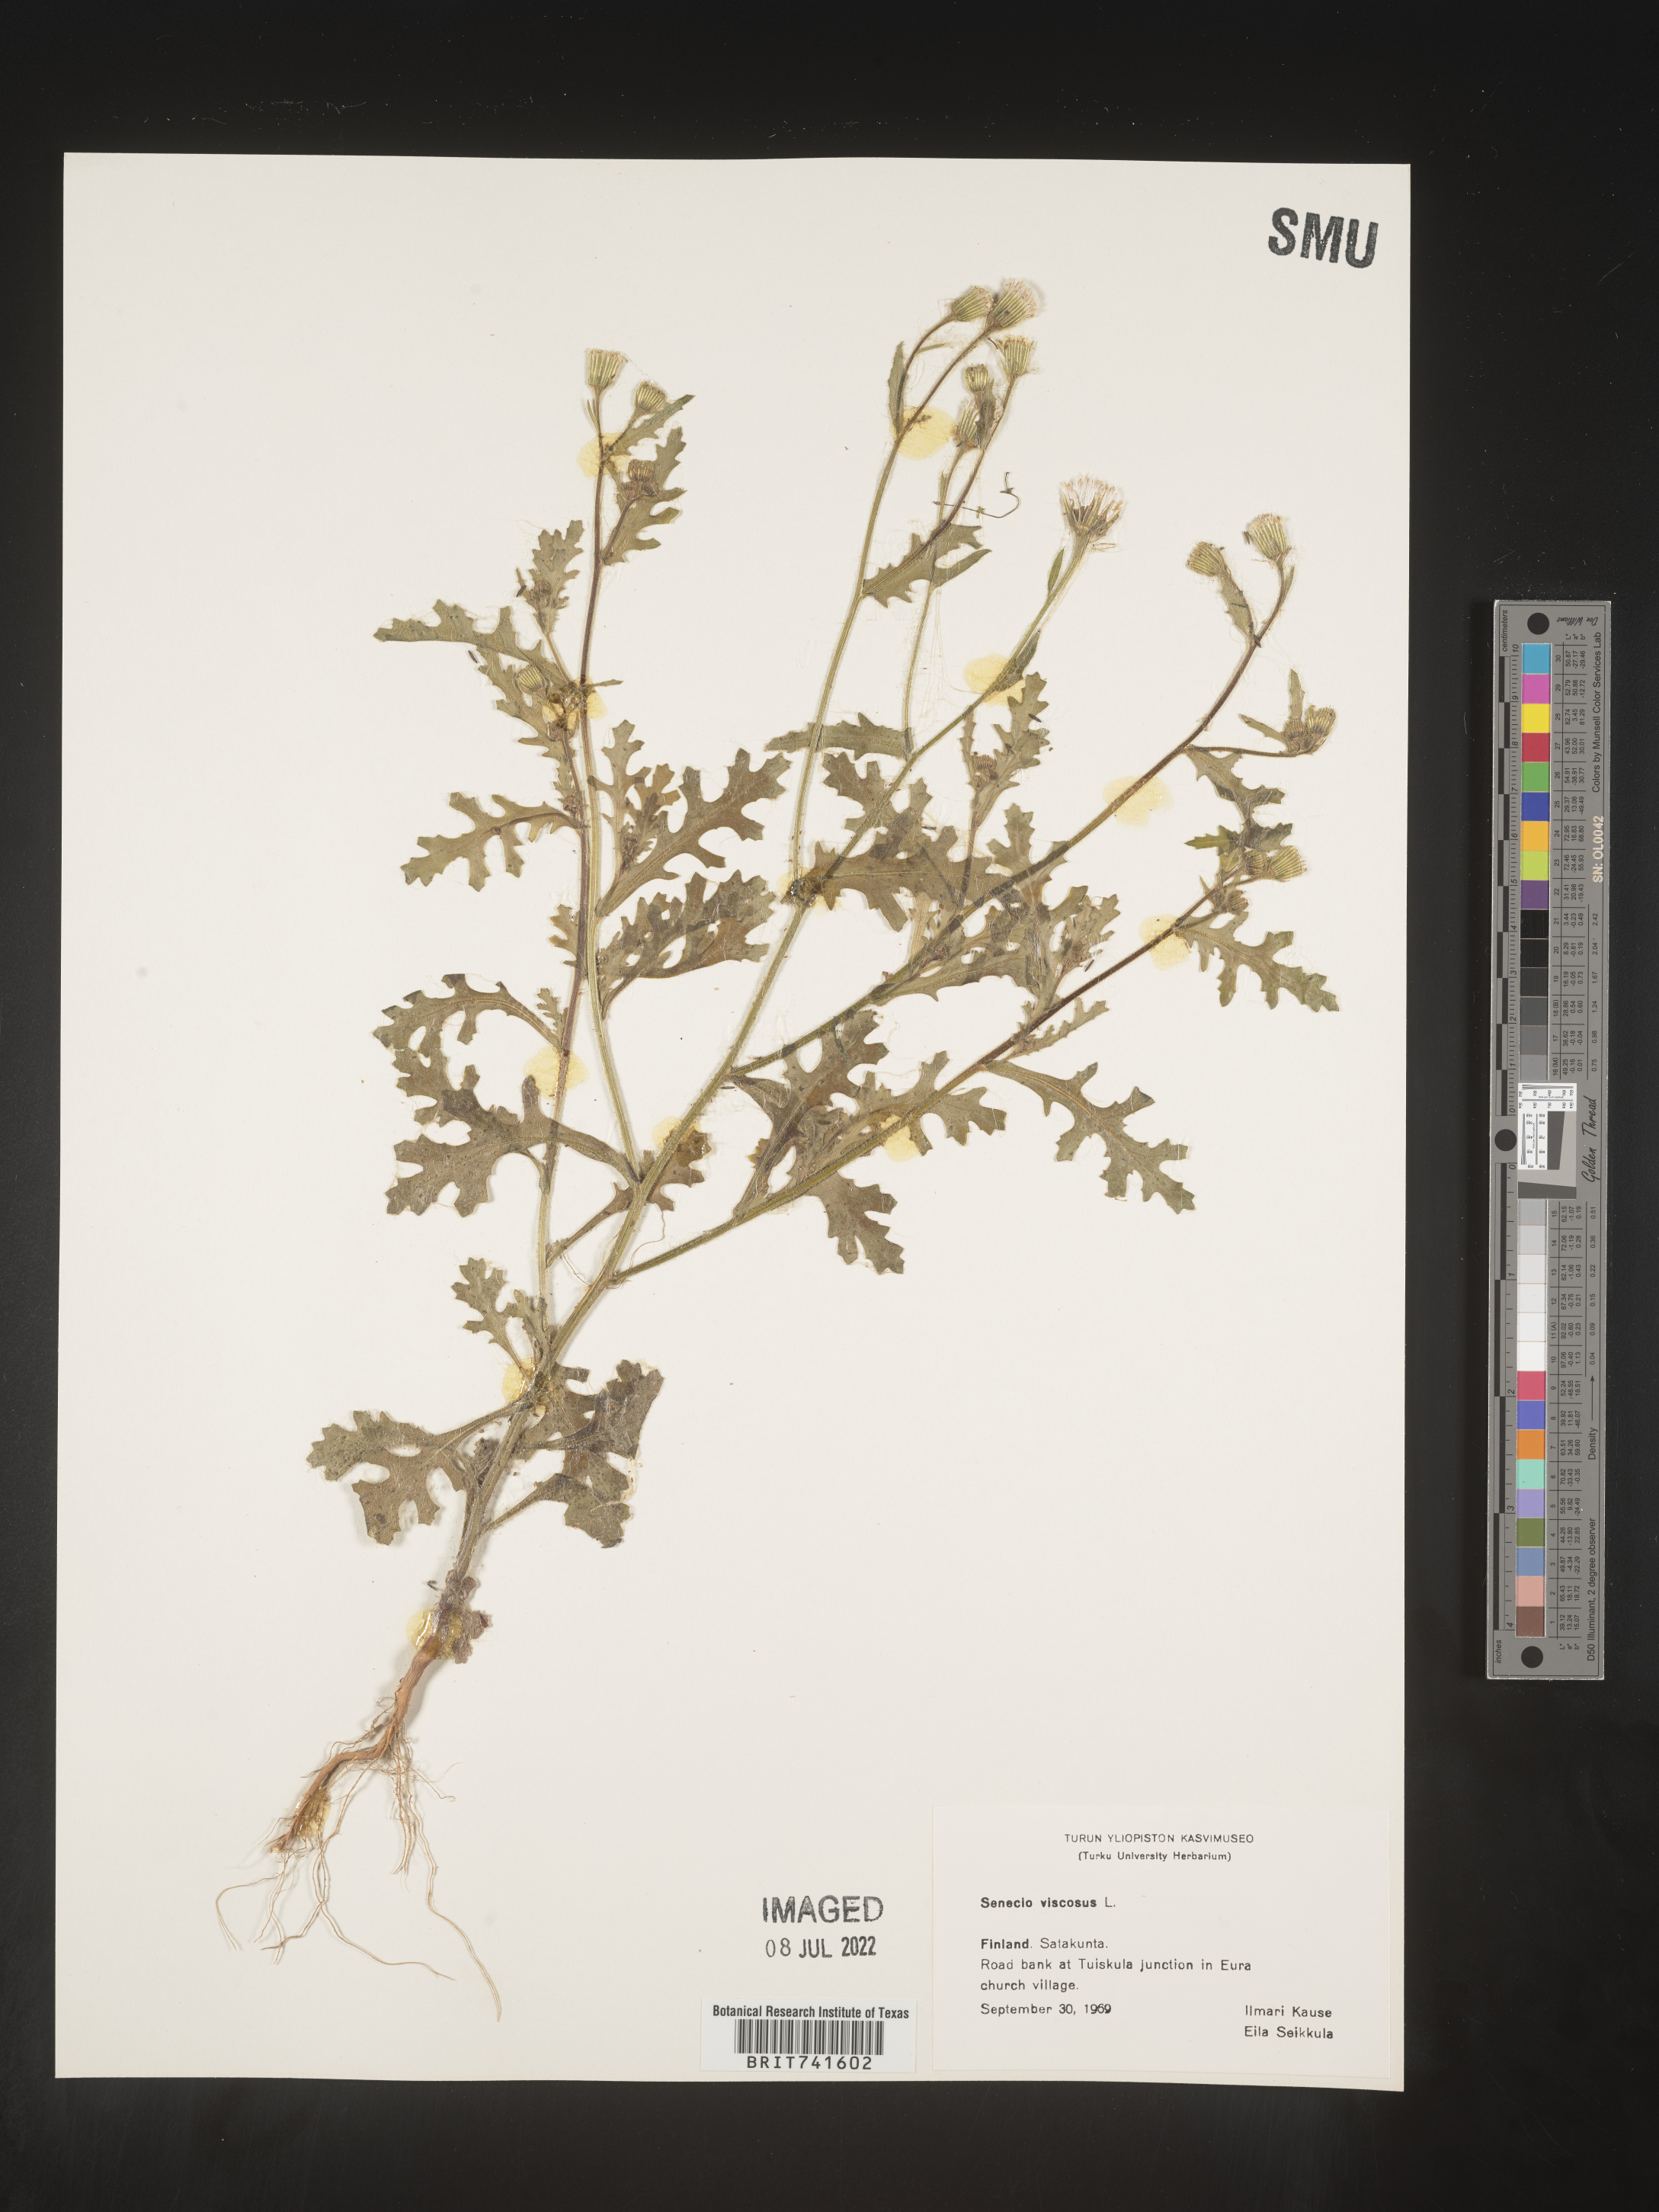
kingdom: Plantae
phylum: Tracheophyta
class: Magnoliopsida
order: Asterales
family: Asteraceae
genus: Senecio
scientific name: Senecio
